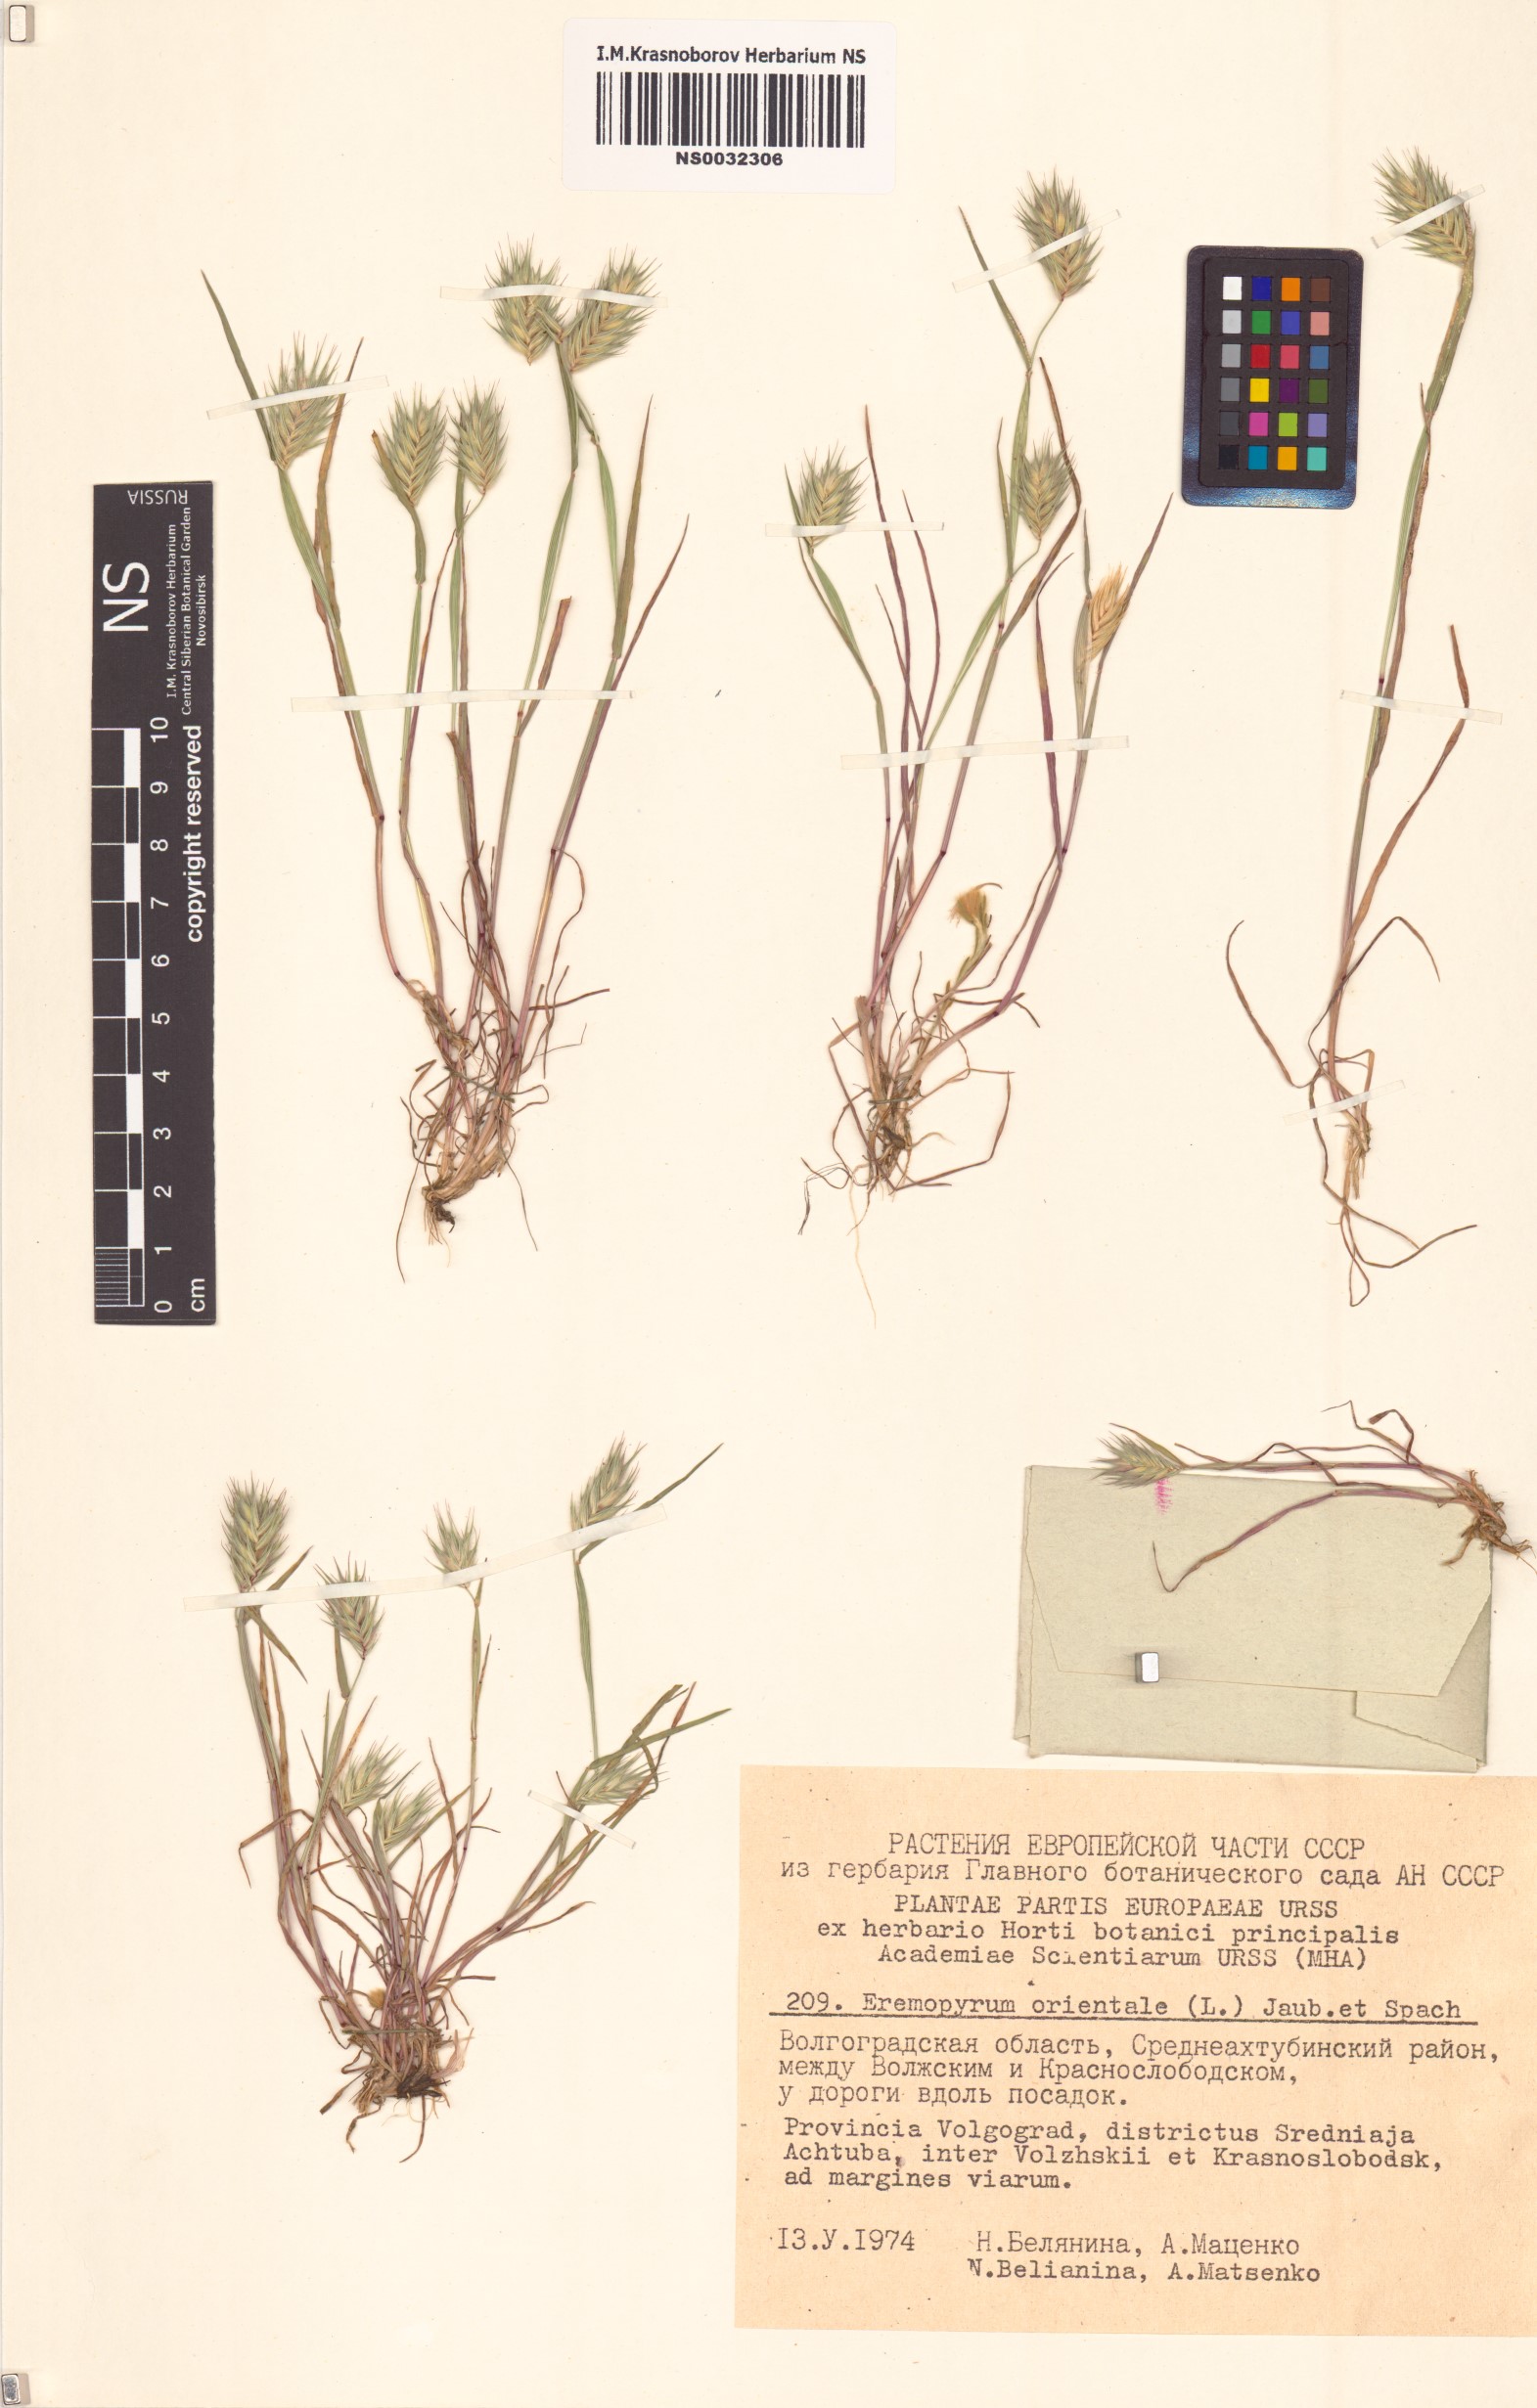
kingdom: Plantae
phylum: Tracheophyta
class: Liliopsida
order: Poales
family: Poaceae
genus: Eremopyrum
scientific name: Eremopyrum orientale
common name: Oriental false wheatgrass
